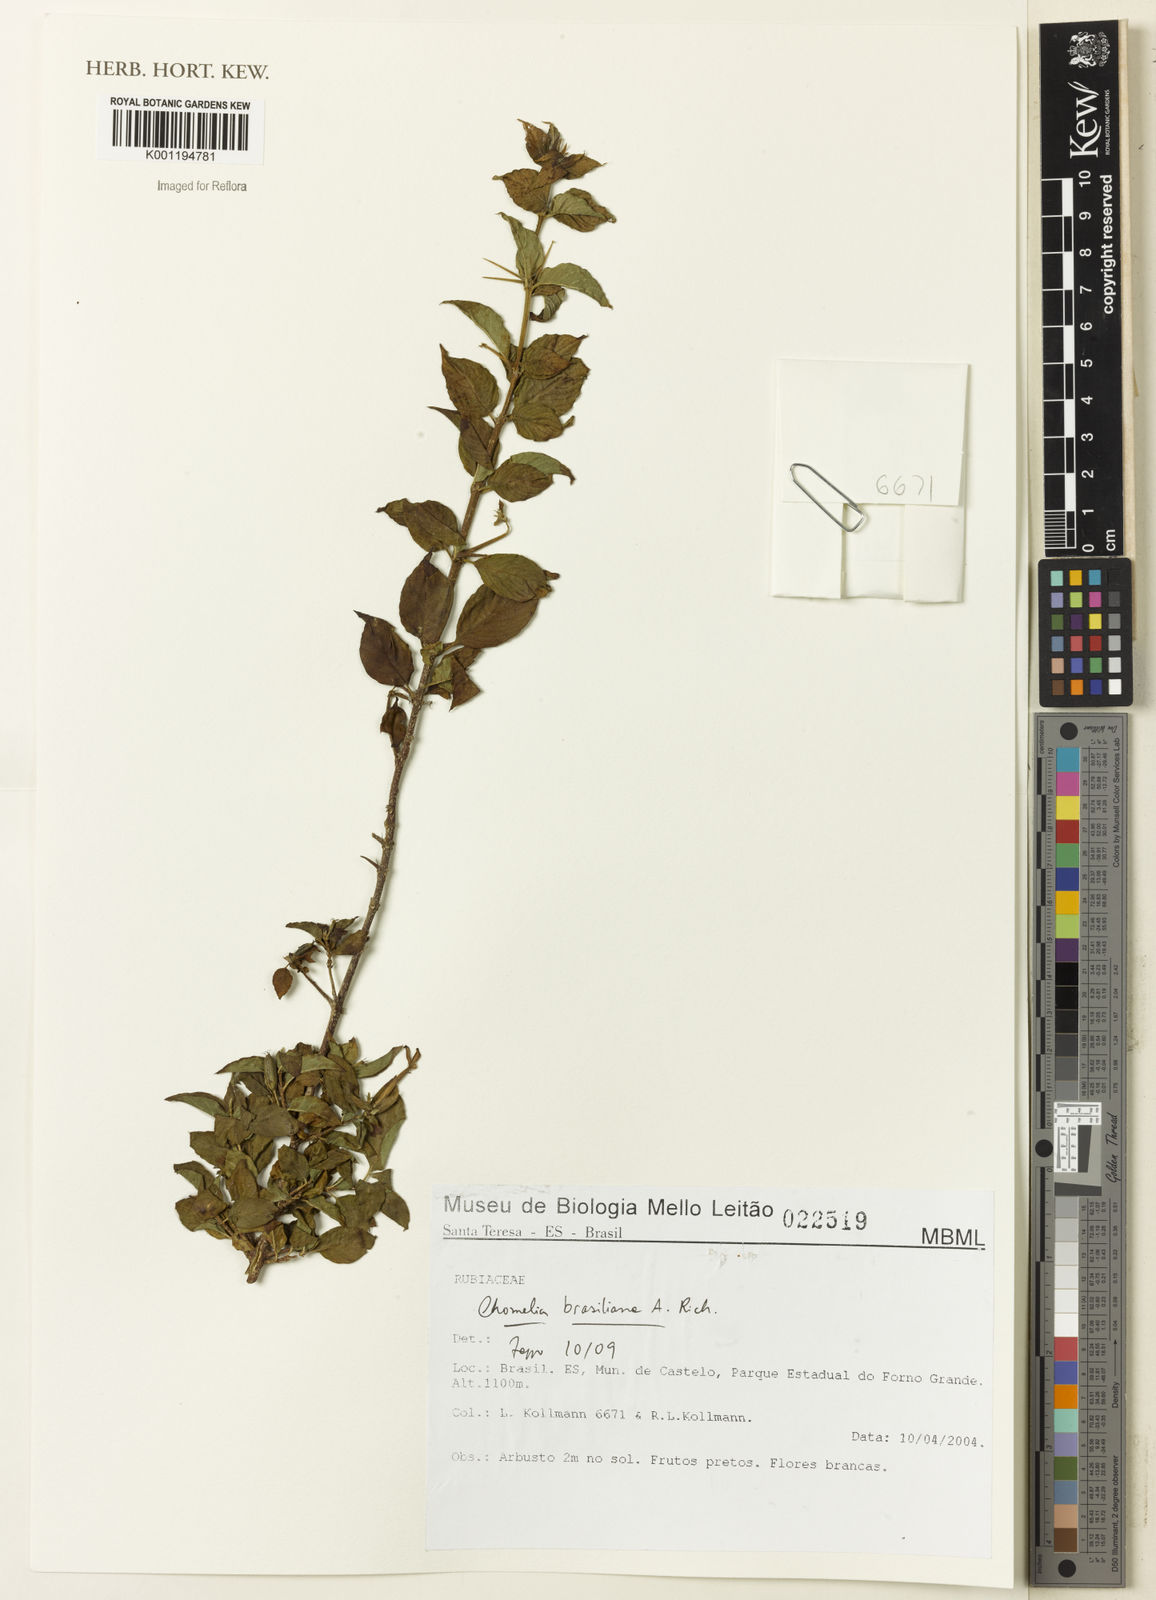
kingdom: Plantae
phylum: Tracheophyta
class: Magnoliopsida
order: Gentianales
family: Rubiaceae
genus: Chomelia
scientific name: Chomelia brasiliana
